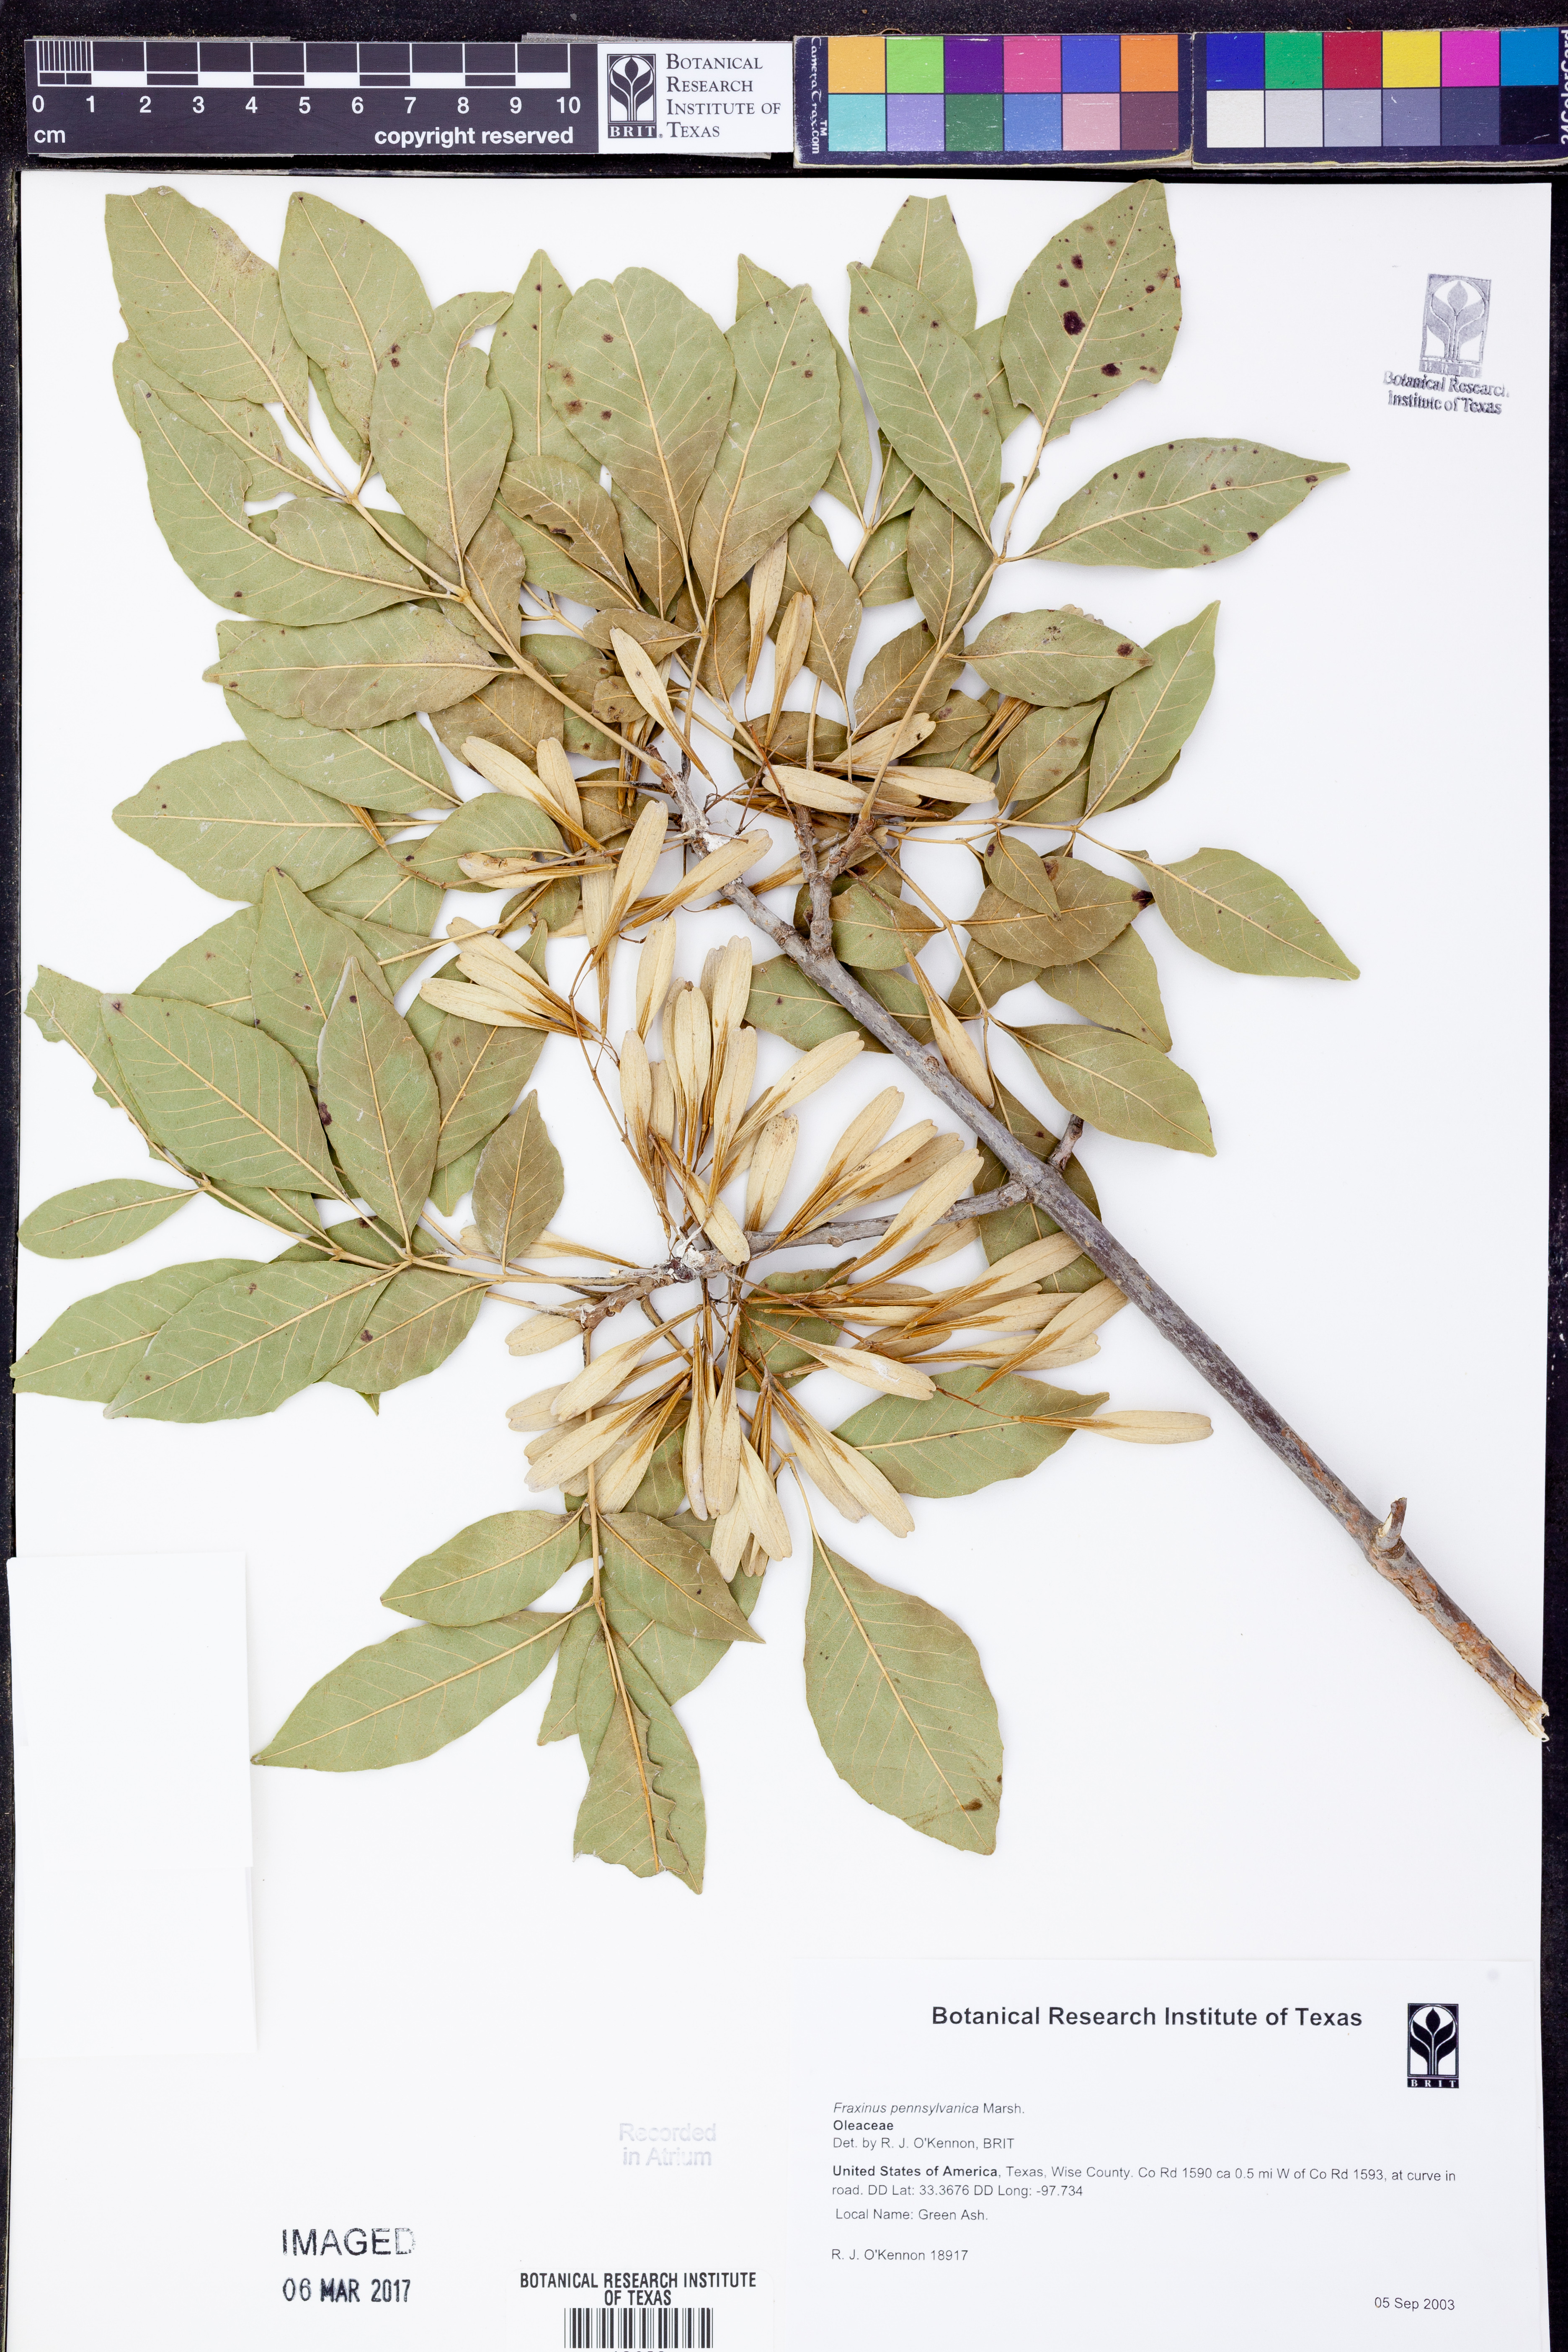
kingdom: Plantae
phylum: Tracheophyta
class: Magnoliopsida
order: Lamiales
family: Oleaceae
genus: Fraxinus
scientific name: Fraxinus pennsylvanica
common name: Green ash
